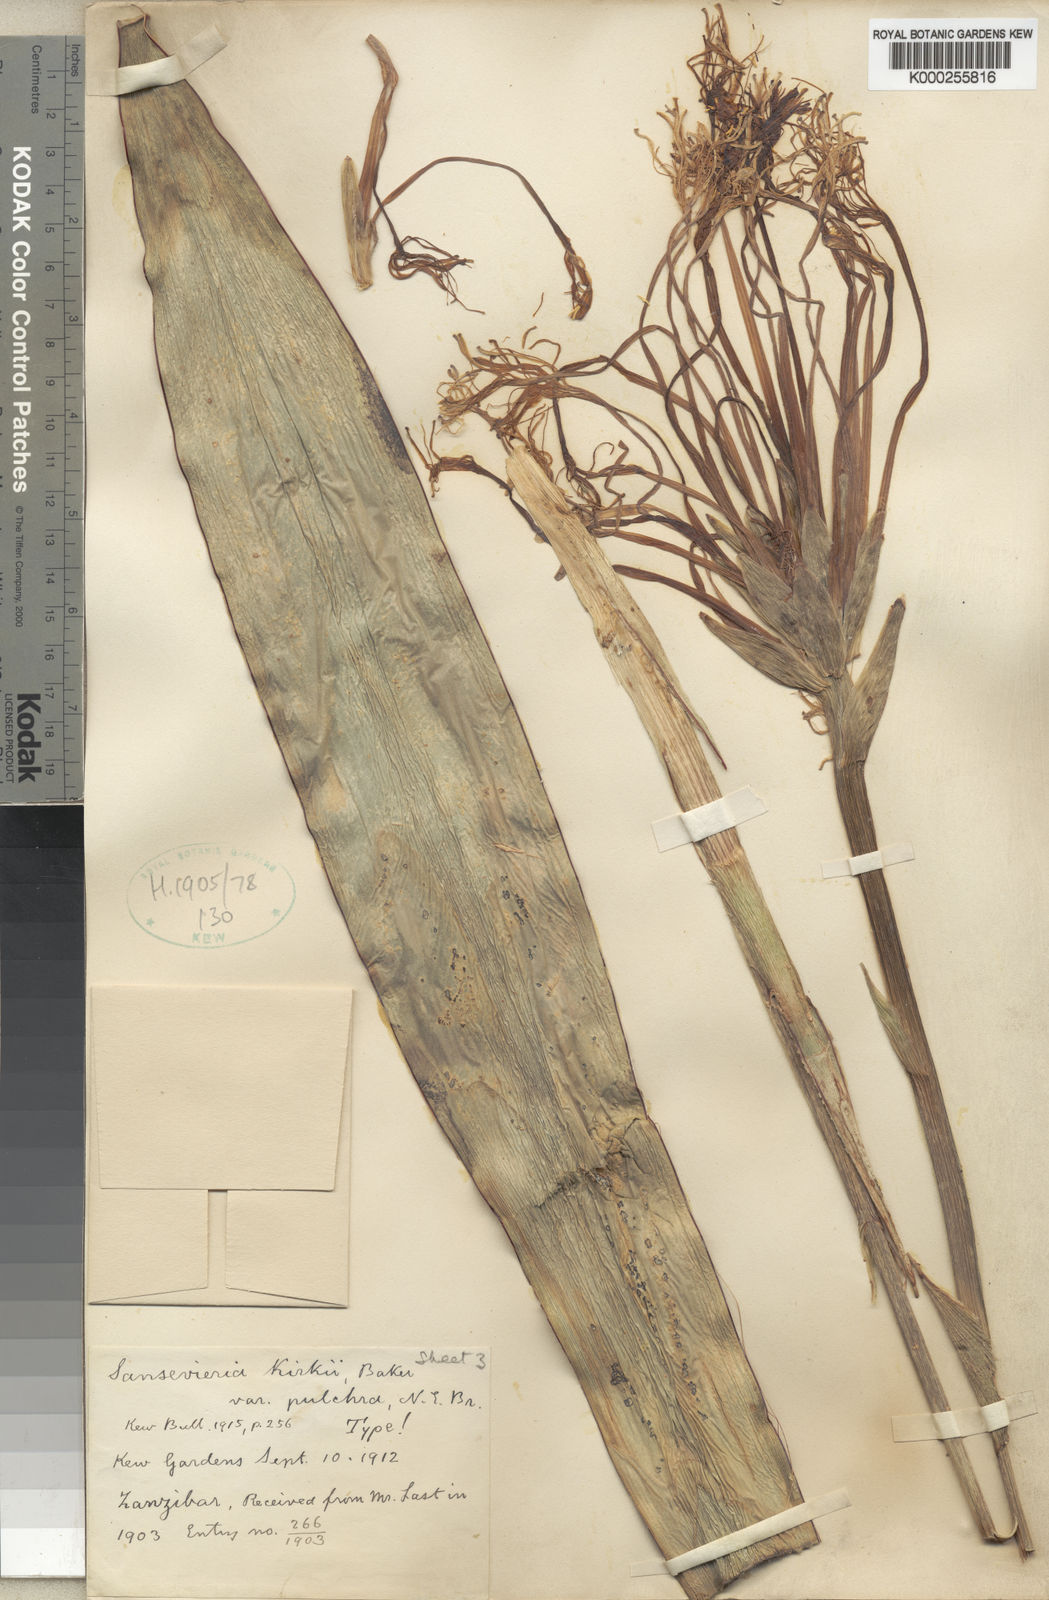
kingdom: Plantae
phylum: Tracheophyta
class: Liliopsida
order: Asparagales
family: Asparagaceae
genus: Dracaena
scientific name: Dracaena pethera
